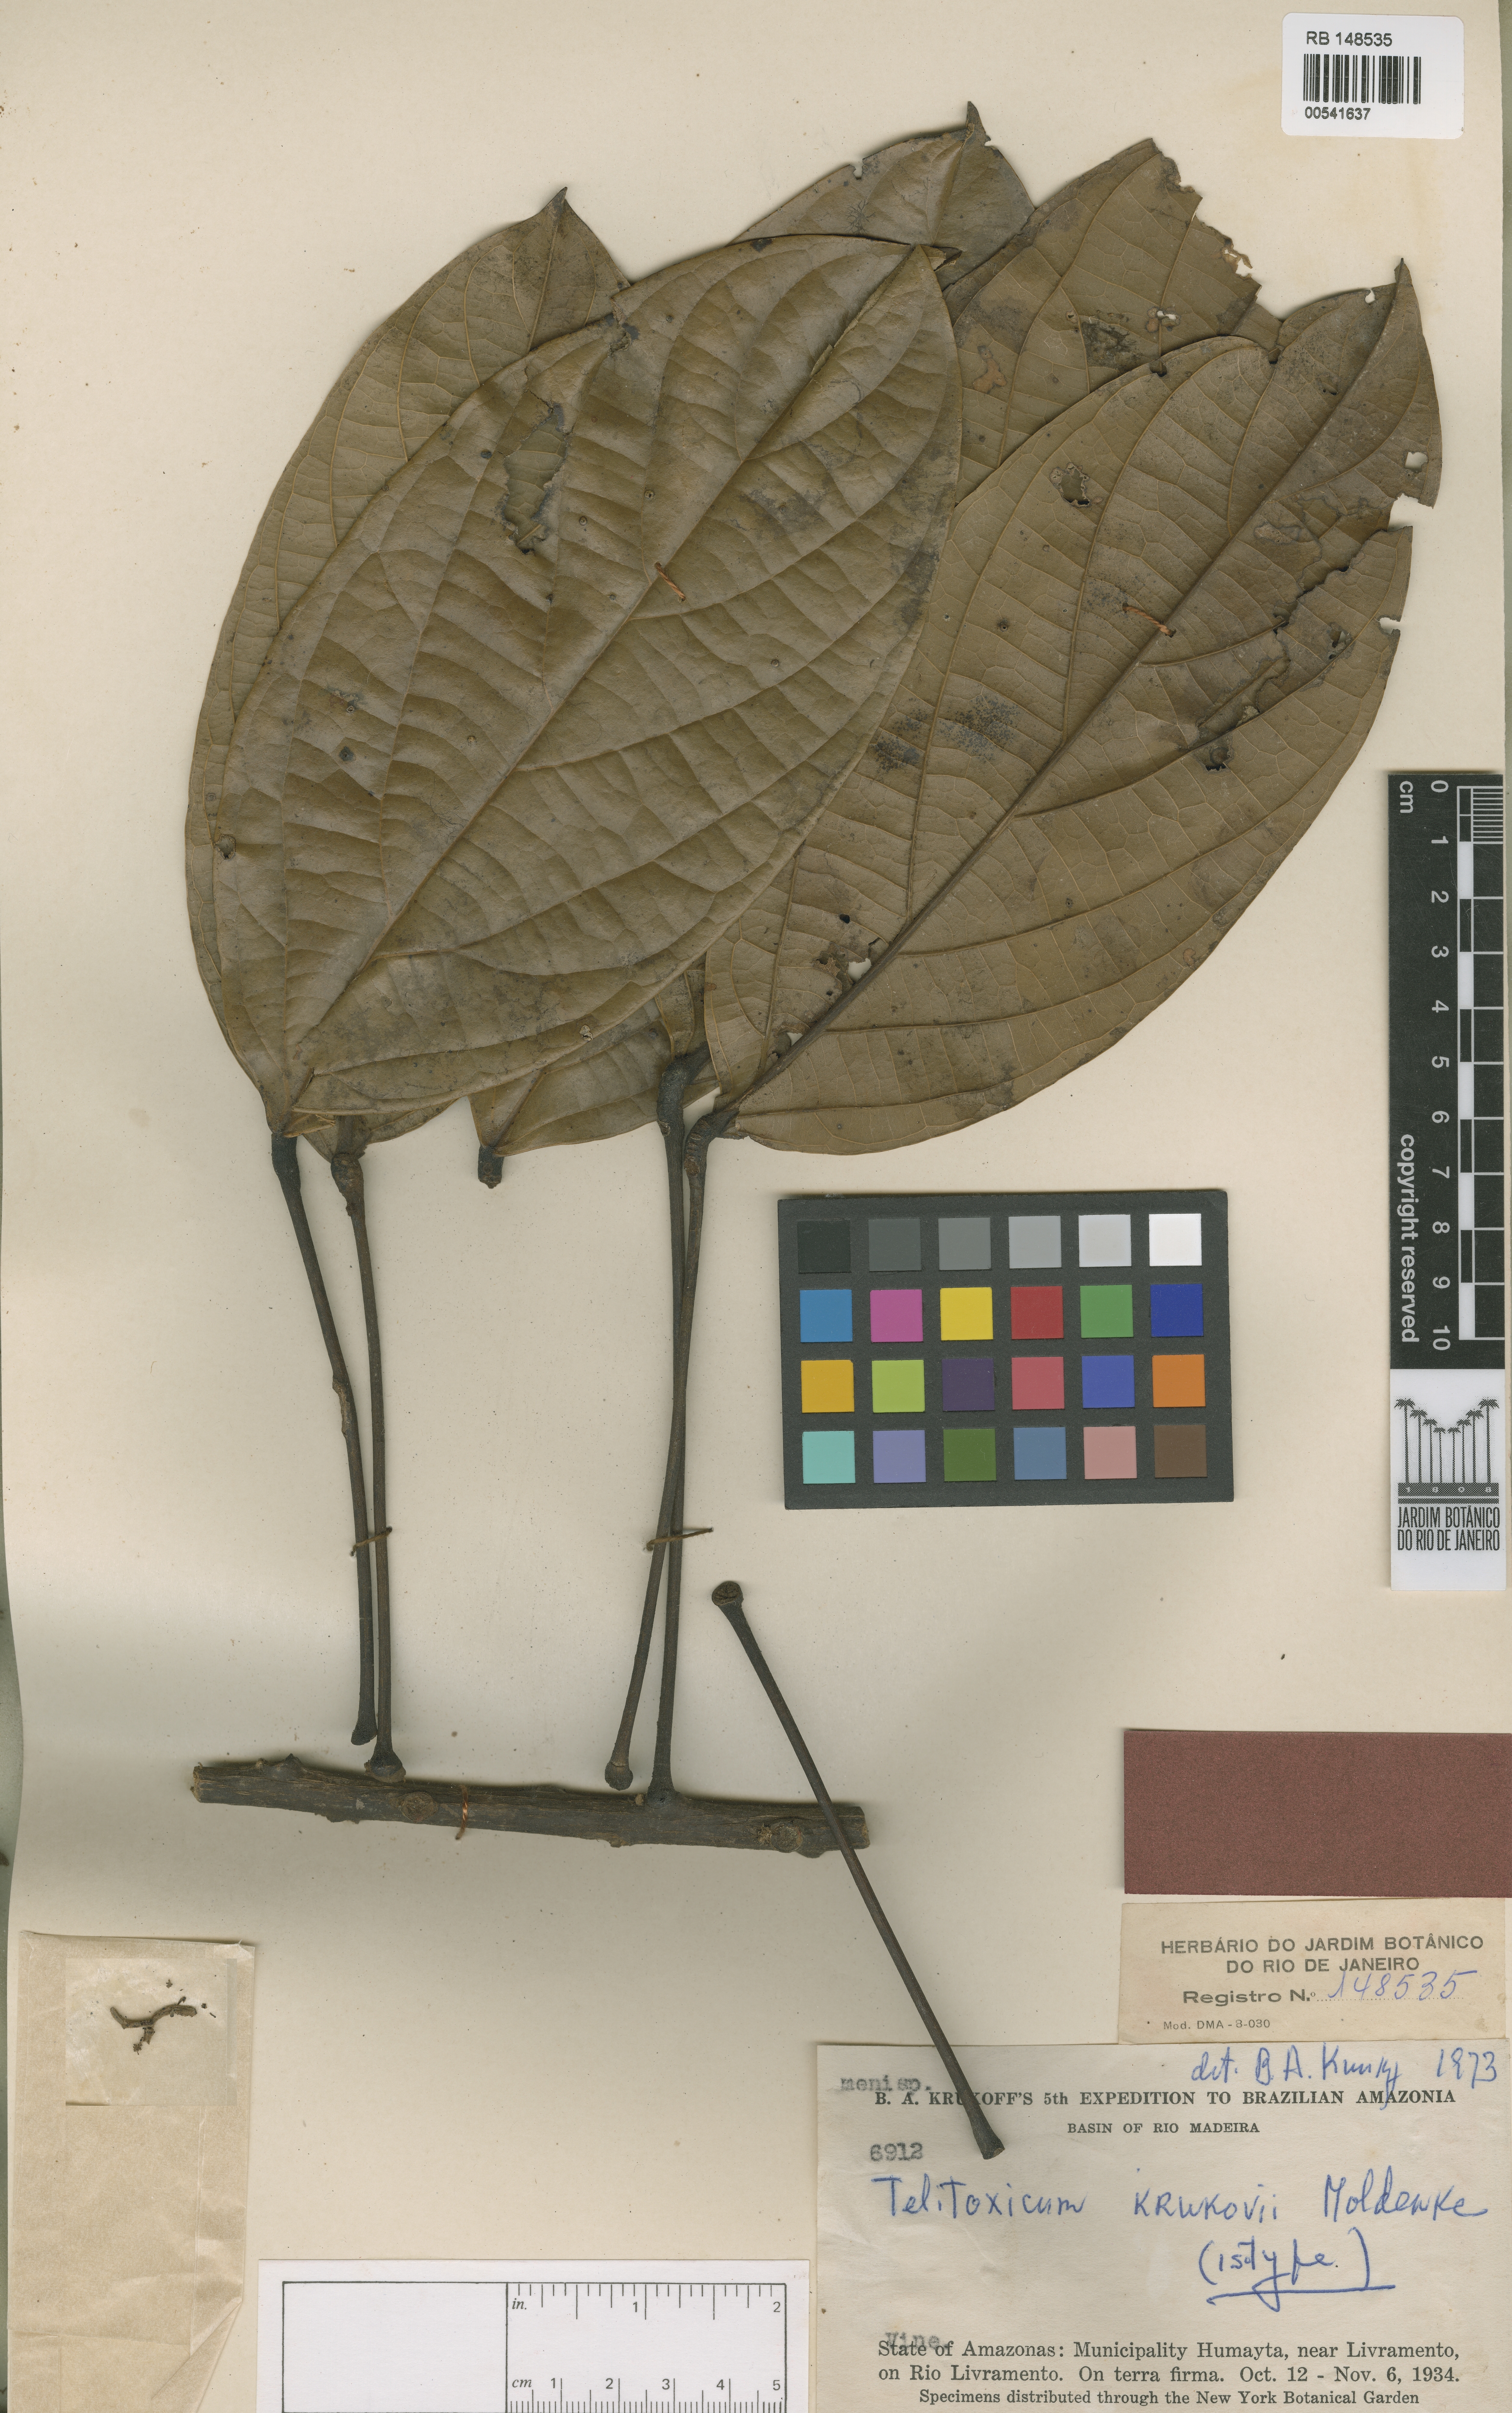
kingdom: Plantae
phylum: Tracheophyta
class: Magnoliopsida
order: Ranunculales
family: Menispermaceae
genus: Telitoxicum
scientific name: Telitoxicum krukovii
